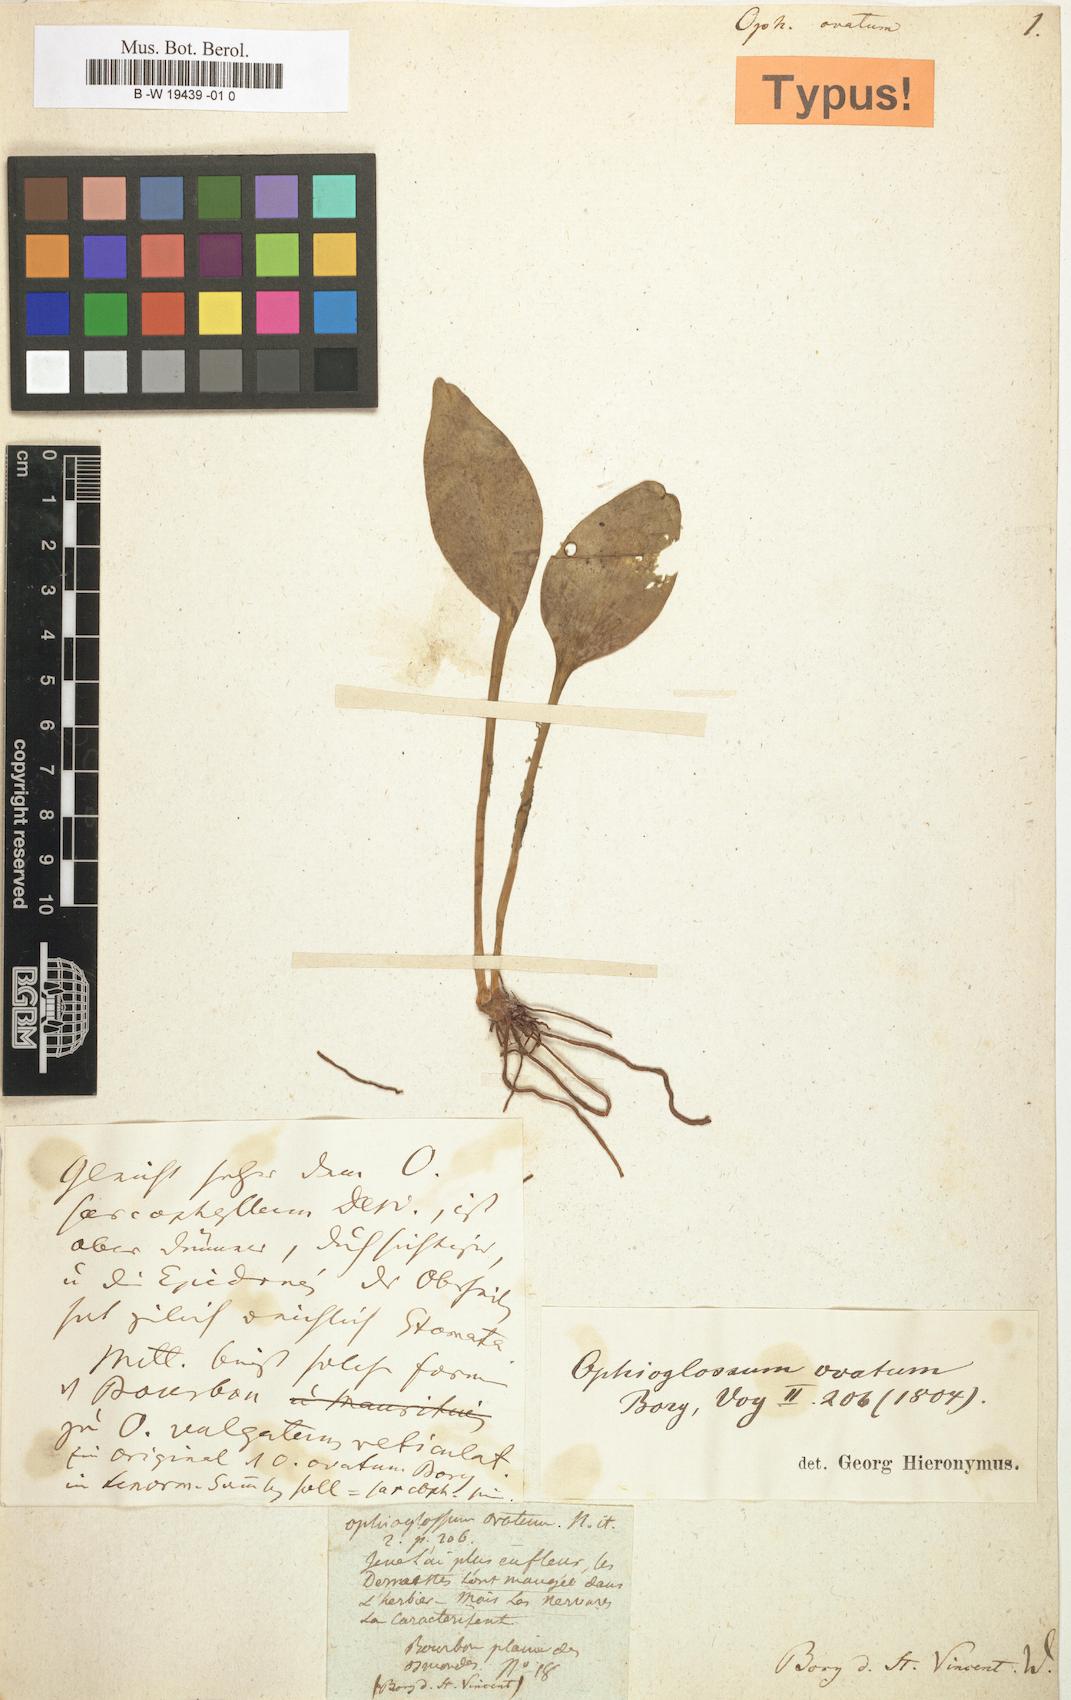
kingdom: Plantae
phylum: Tracheophyta
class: Polypodiopsida
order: Ophioglossales
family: Ophioglossaceae
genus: Ophioglossum
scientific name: Ophioglossum
